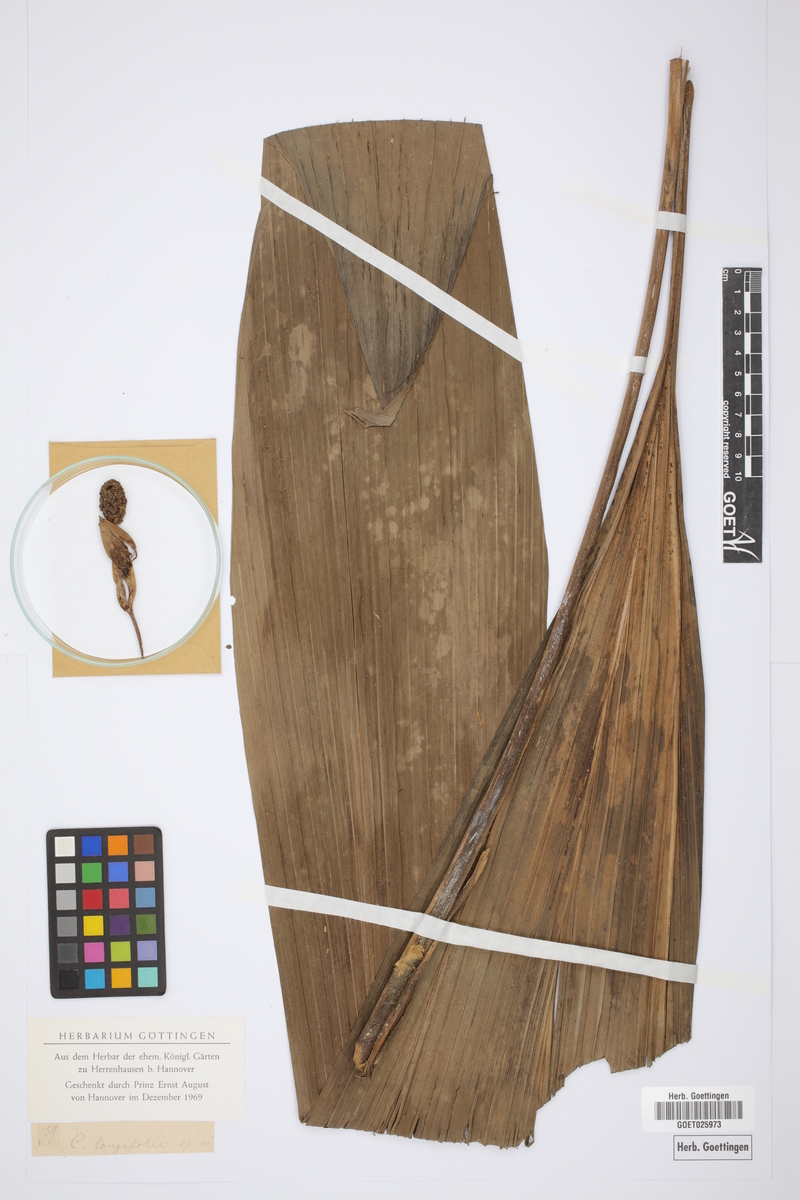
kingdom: Plantae
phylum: Tracheophyta
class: Liliopsida
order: Pandanales
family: Cyclanthaceae
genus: Carludovica
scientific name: Carludovica
